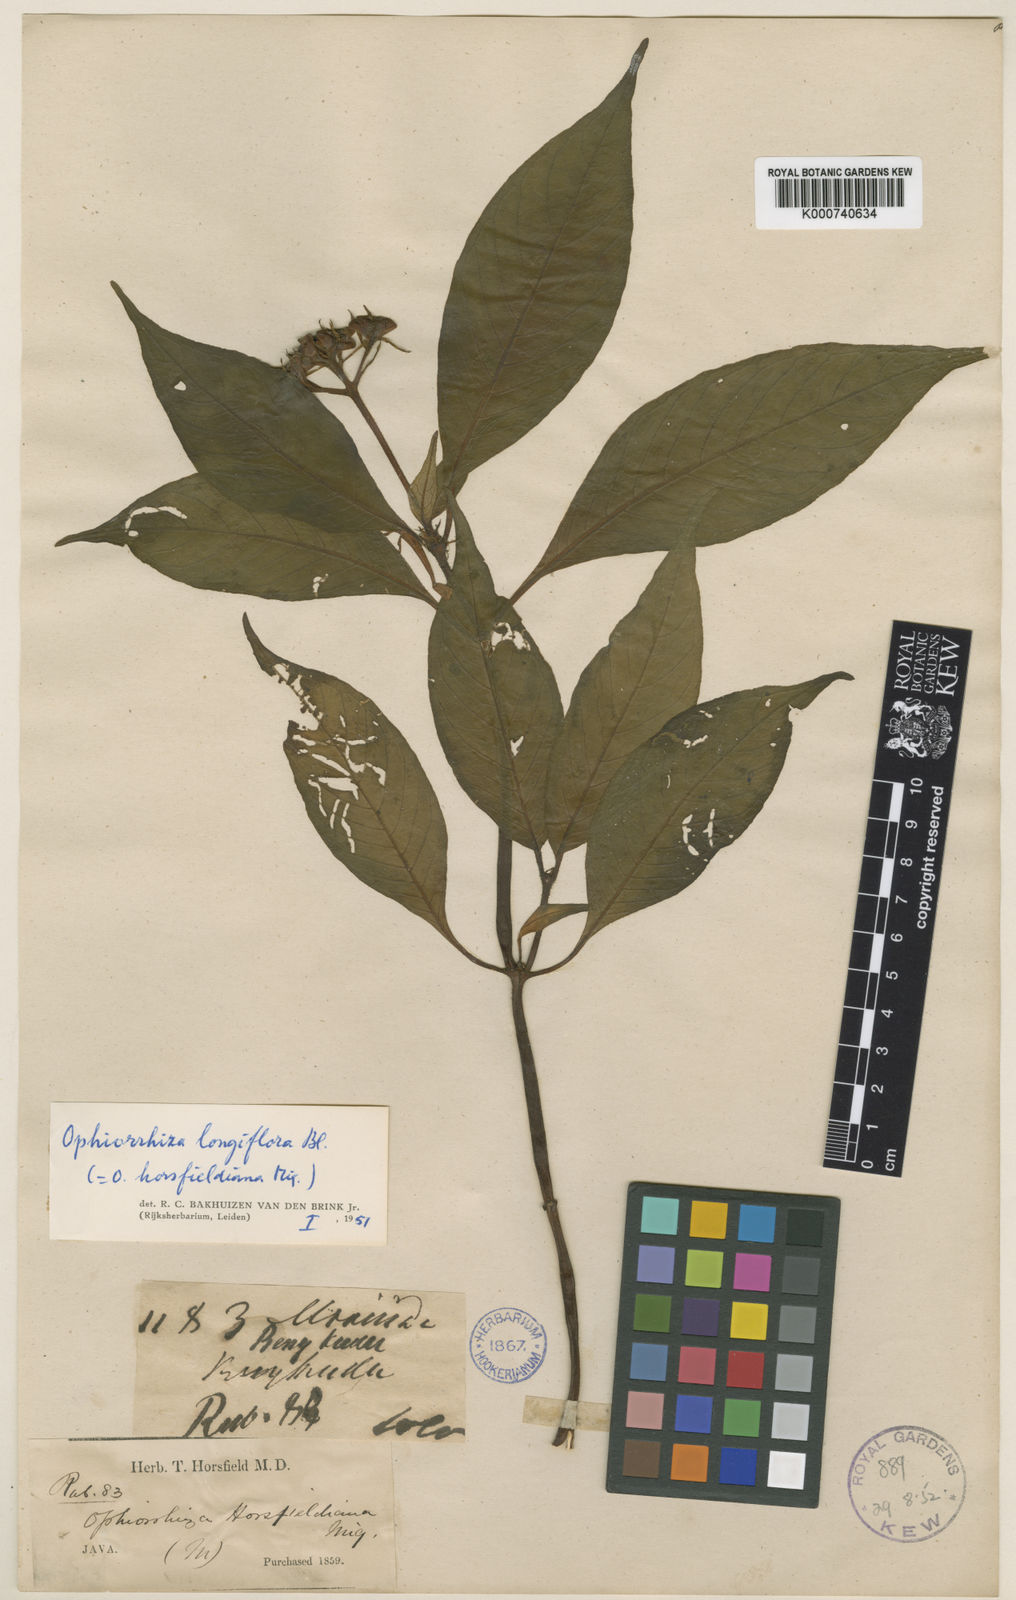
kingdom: Plantae
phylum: Tracheophyta
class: Magnoliopsida
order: Gentianales
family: Rubiaceae
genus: Ophiorrhiza
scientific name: Ophiorrhiza longiflora
